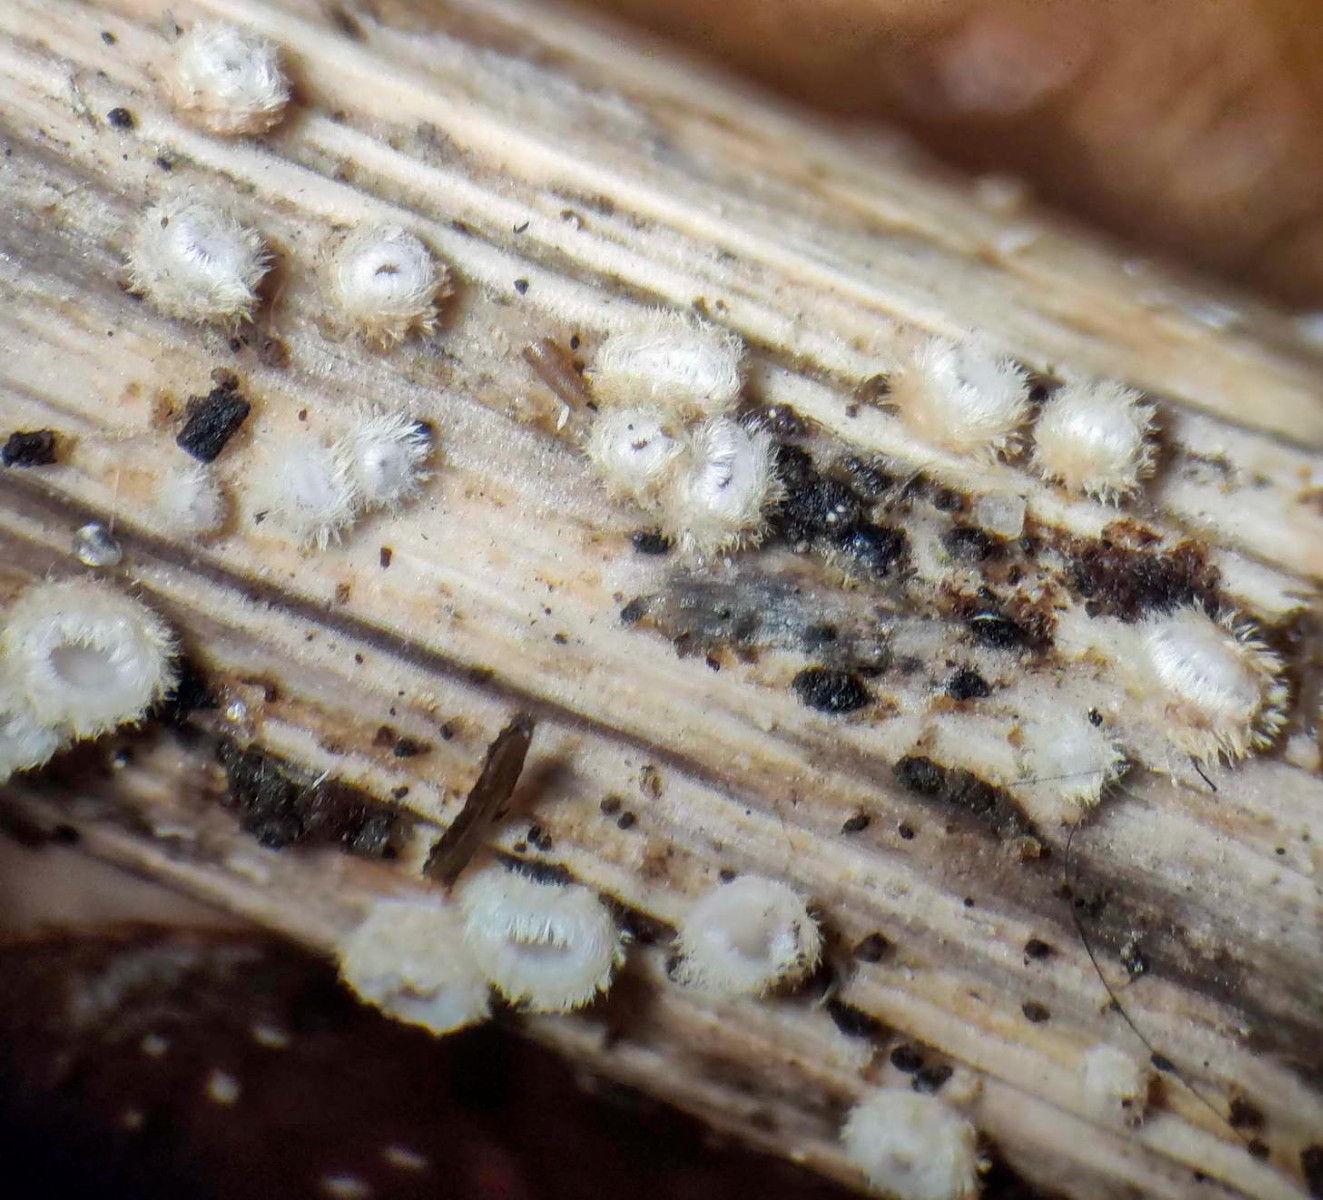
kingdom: Fungi
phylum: Ascomycota
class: Leotiomycetes
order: Helotiales
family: Lachnaceae
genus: Lachnum
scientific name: Lachnum mollissimum
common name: flødefarvet frynseskive
